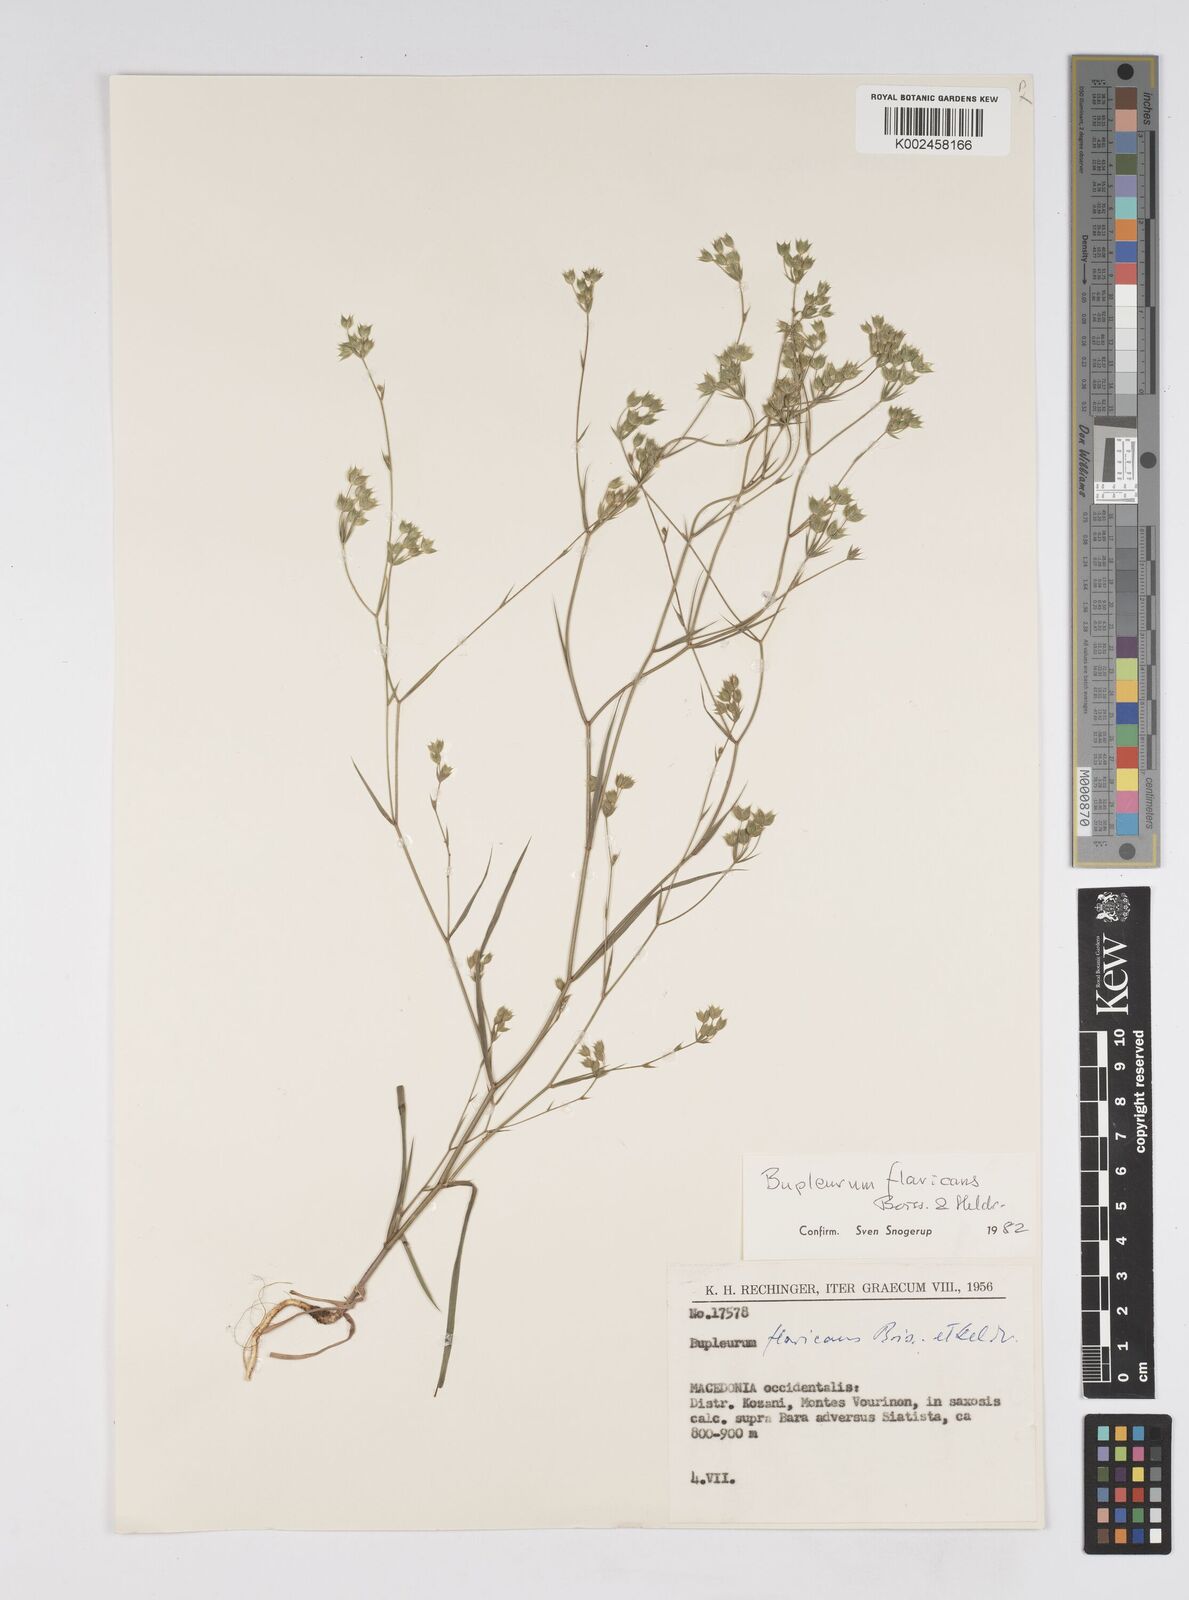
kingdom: Plantae
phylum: Tracheophyta
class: Magnoliopsida
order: Apiales
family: Apiaceae
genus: Bupleurum
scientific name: Bupleurum flavicans
